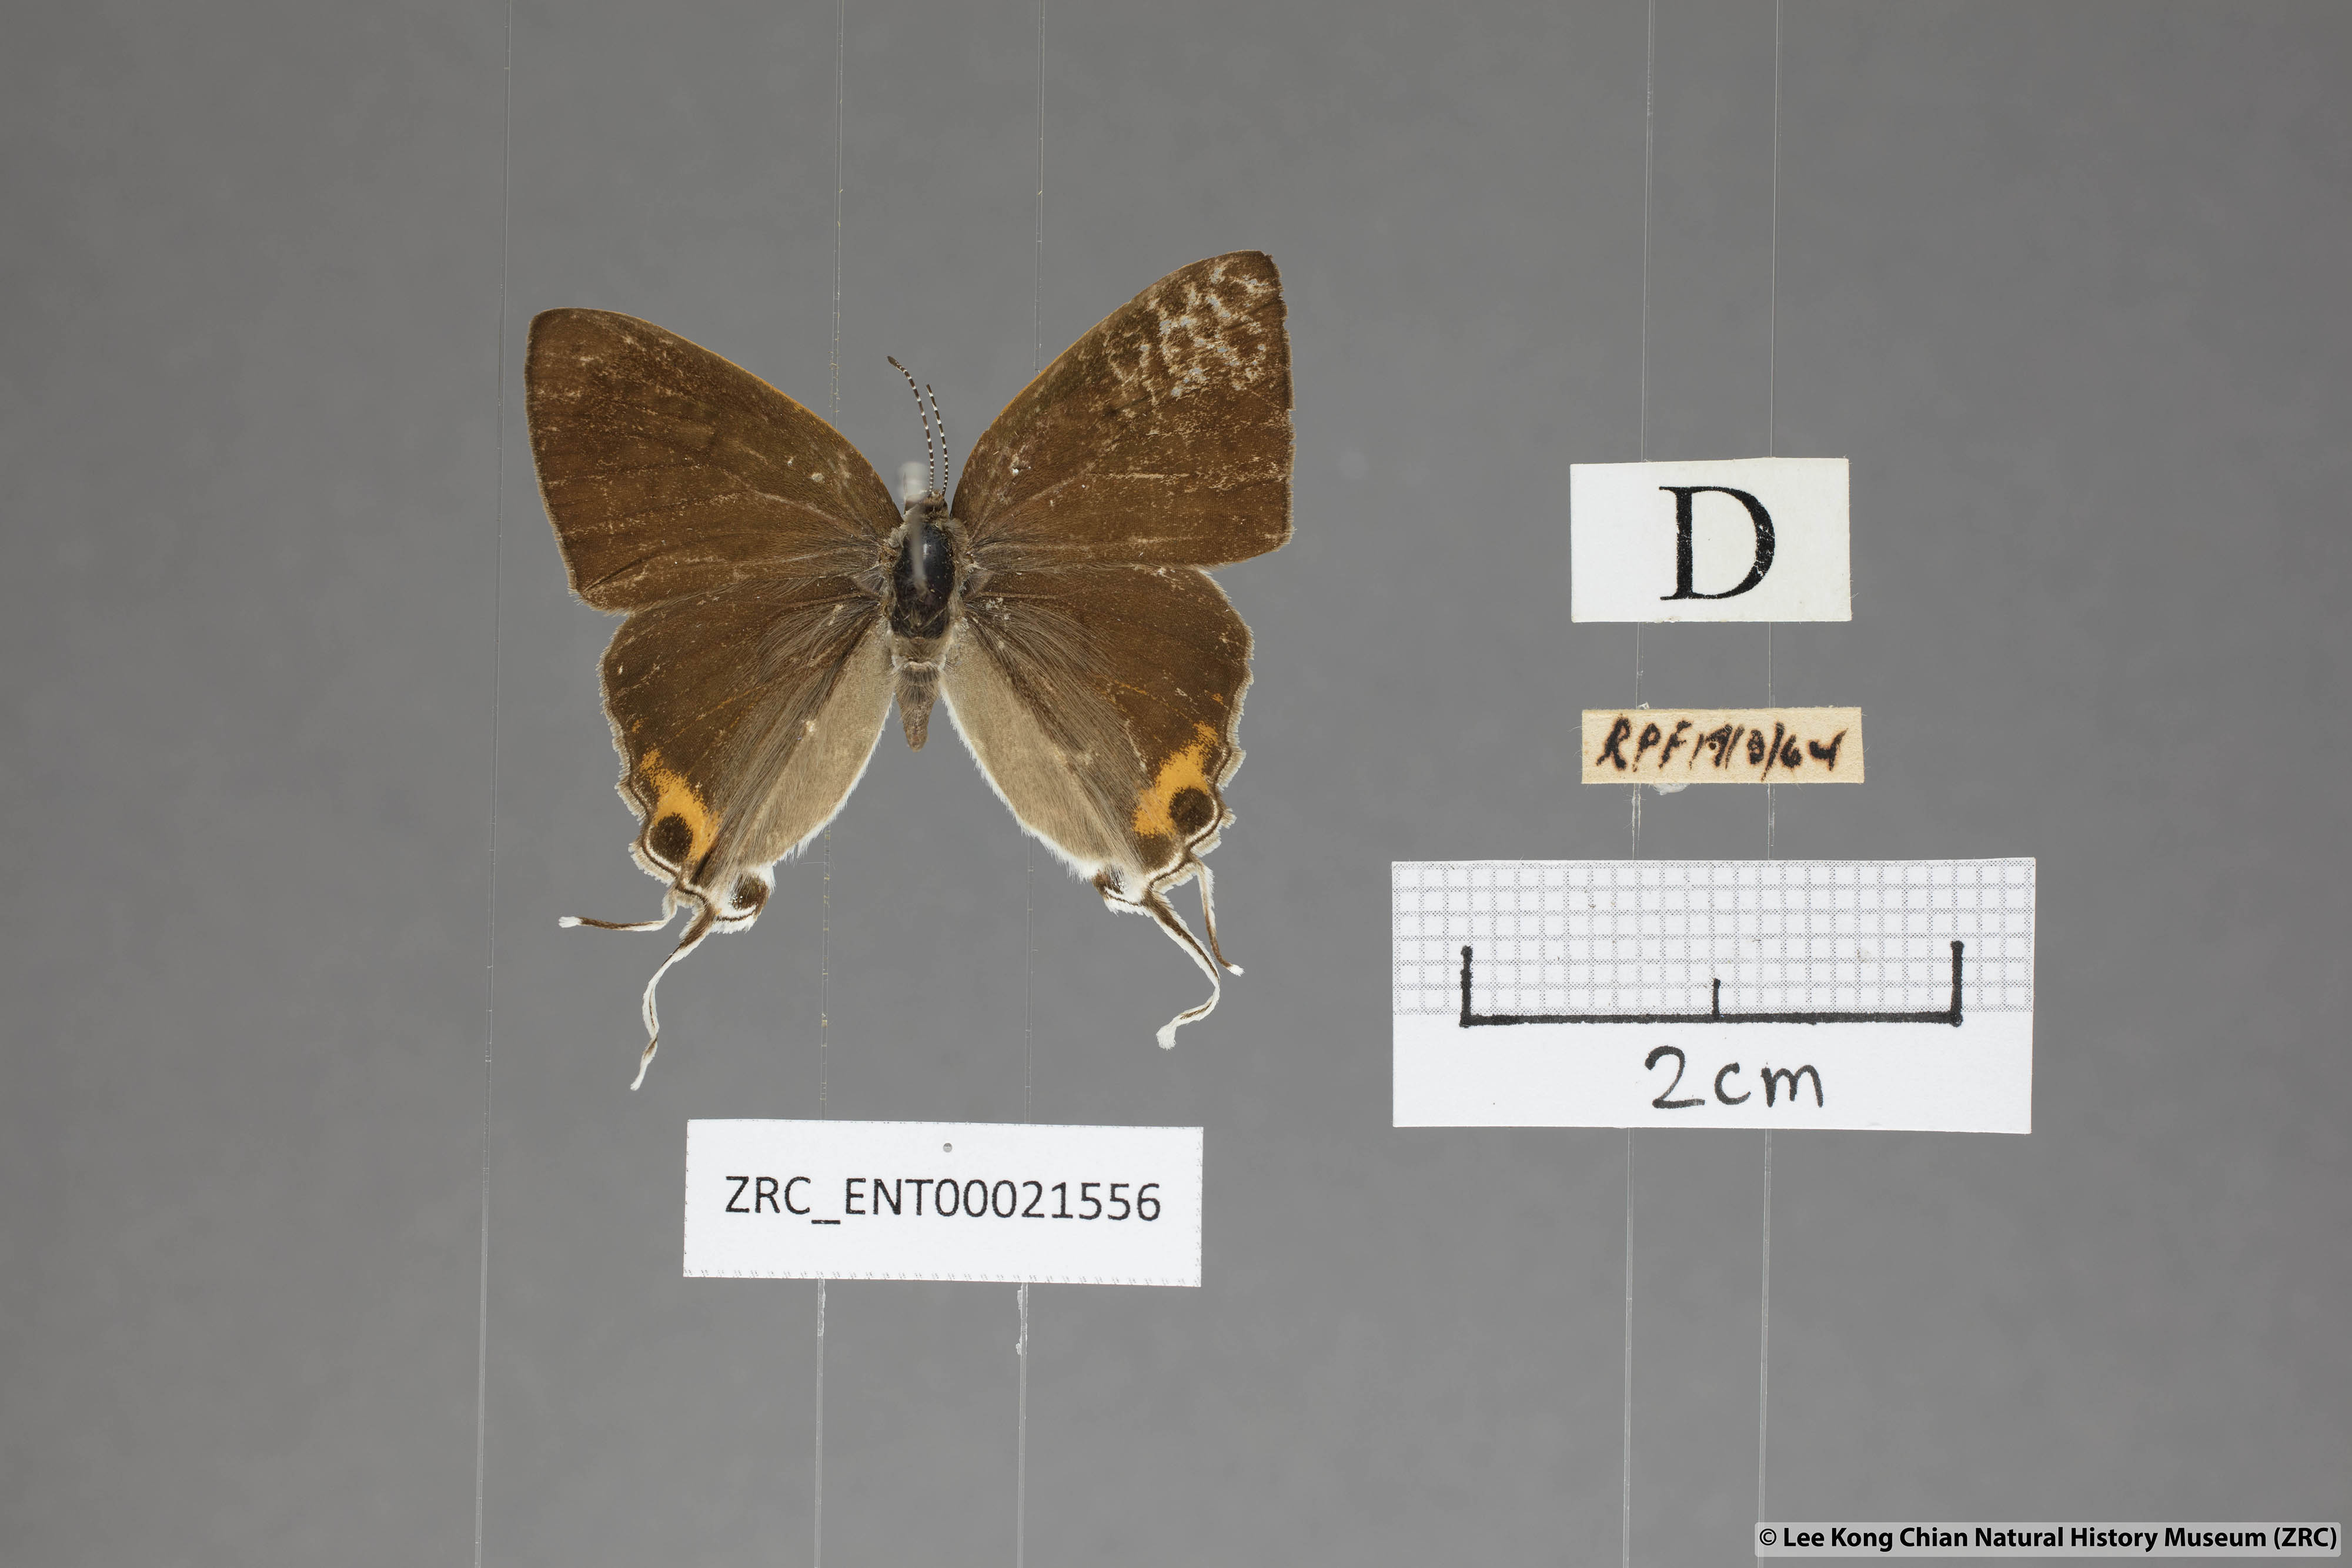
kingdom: Animalia
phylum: Arthropoda
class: Insecta
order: Lepidoptera
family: Lycaenidae
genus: Hypolycaena
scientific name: Hypolycaena thecloides
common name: Dark tit
